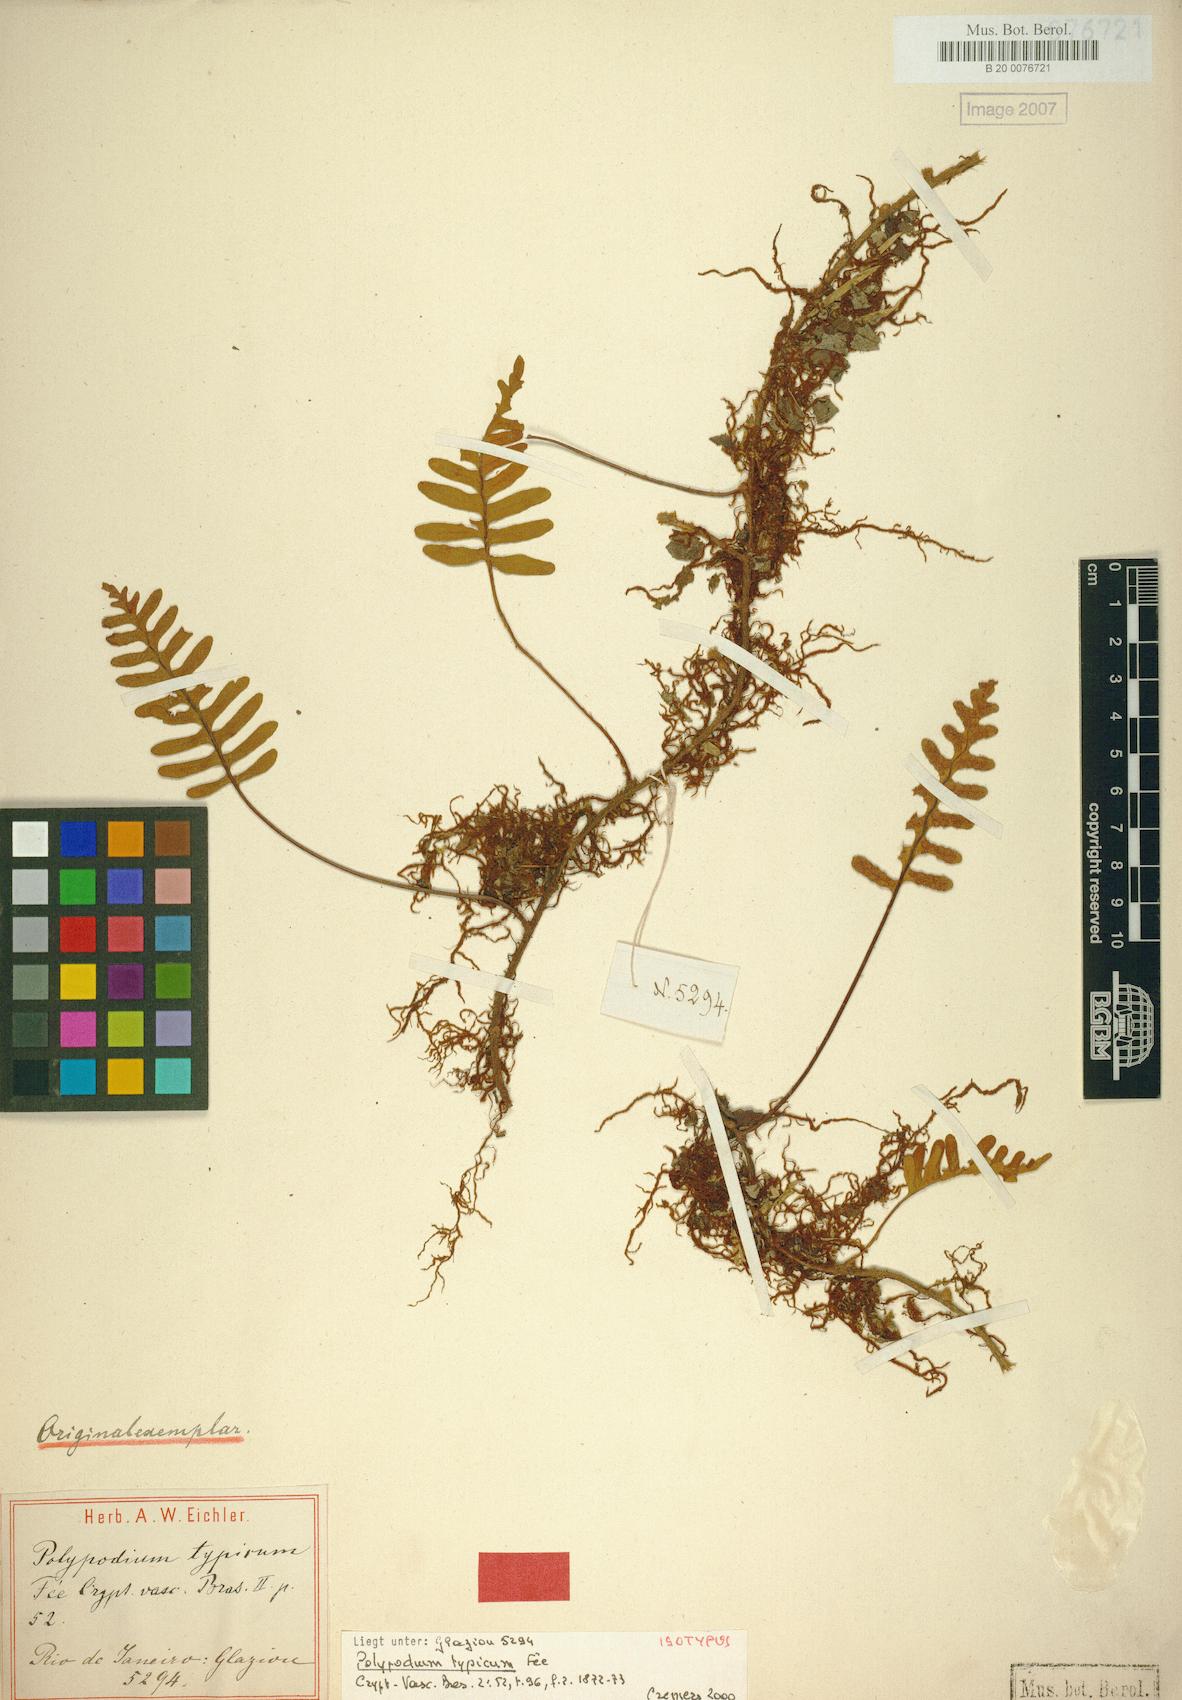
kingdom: Plantae
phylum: Tracheophyta
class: Polypodiopsida
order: Polypodiales
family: Polypodiaceae
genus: Pleopeltis
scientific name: Pleopeltis pleopeltidis
